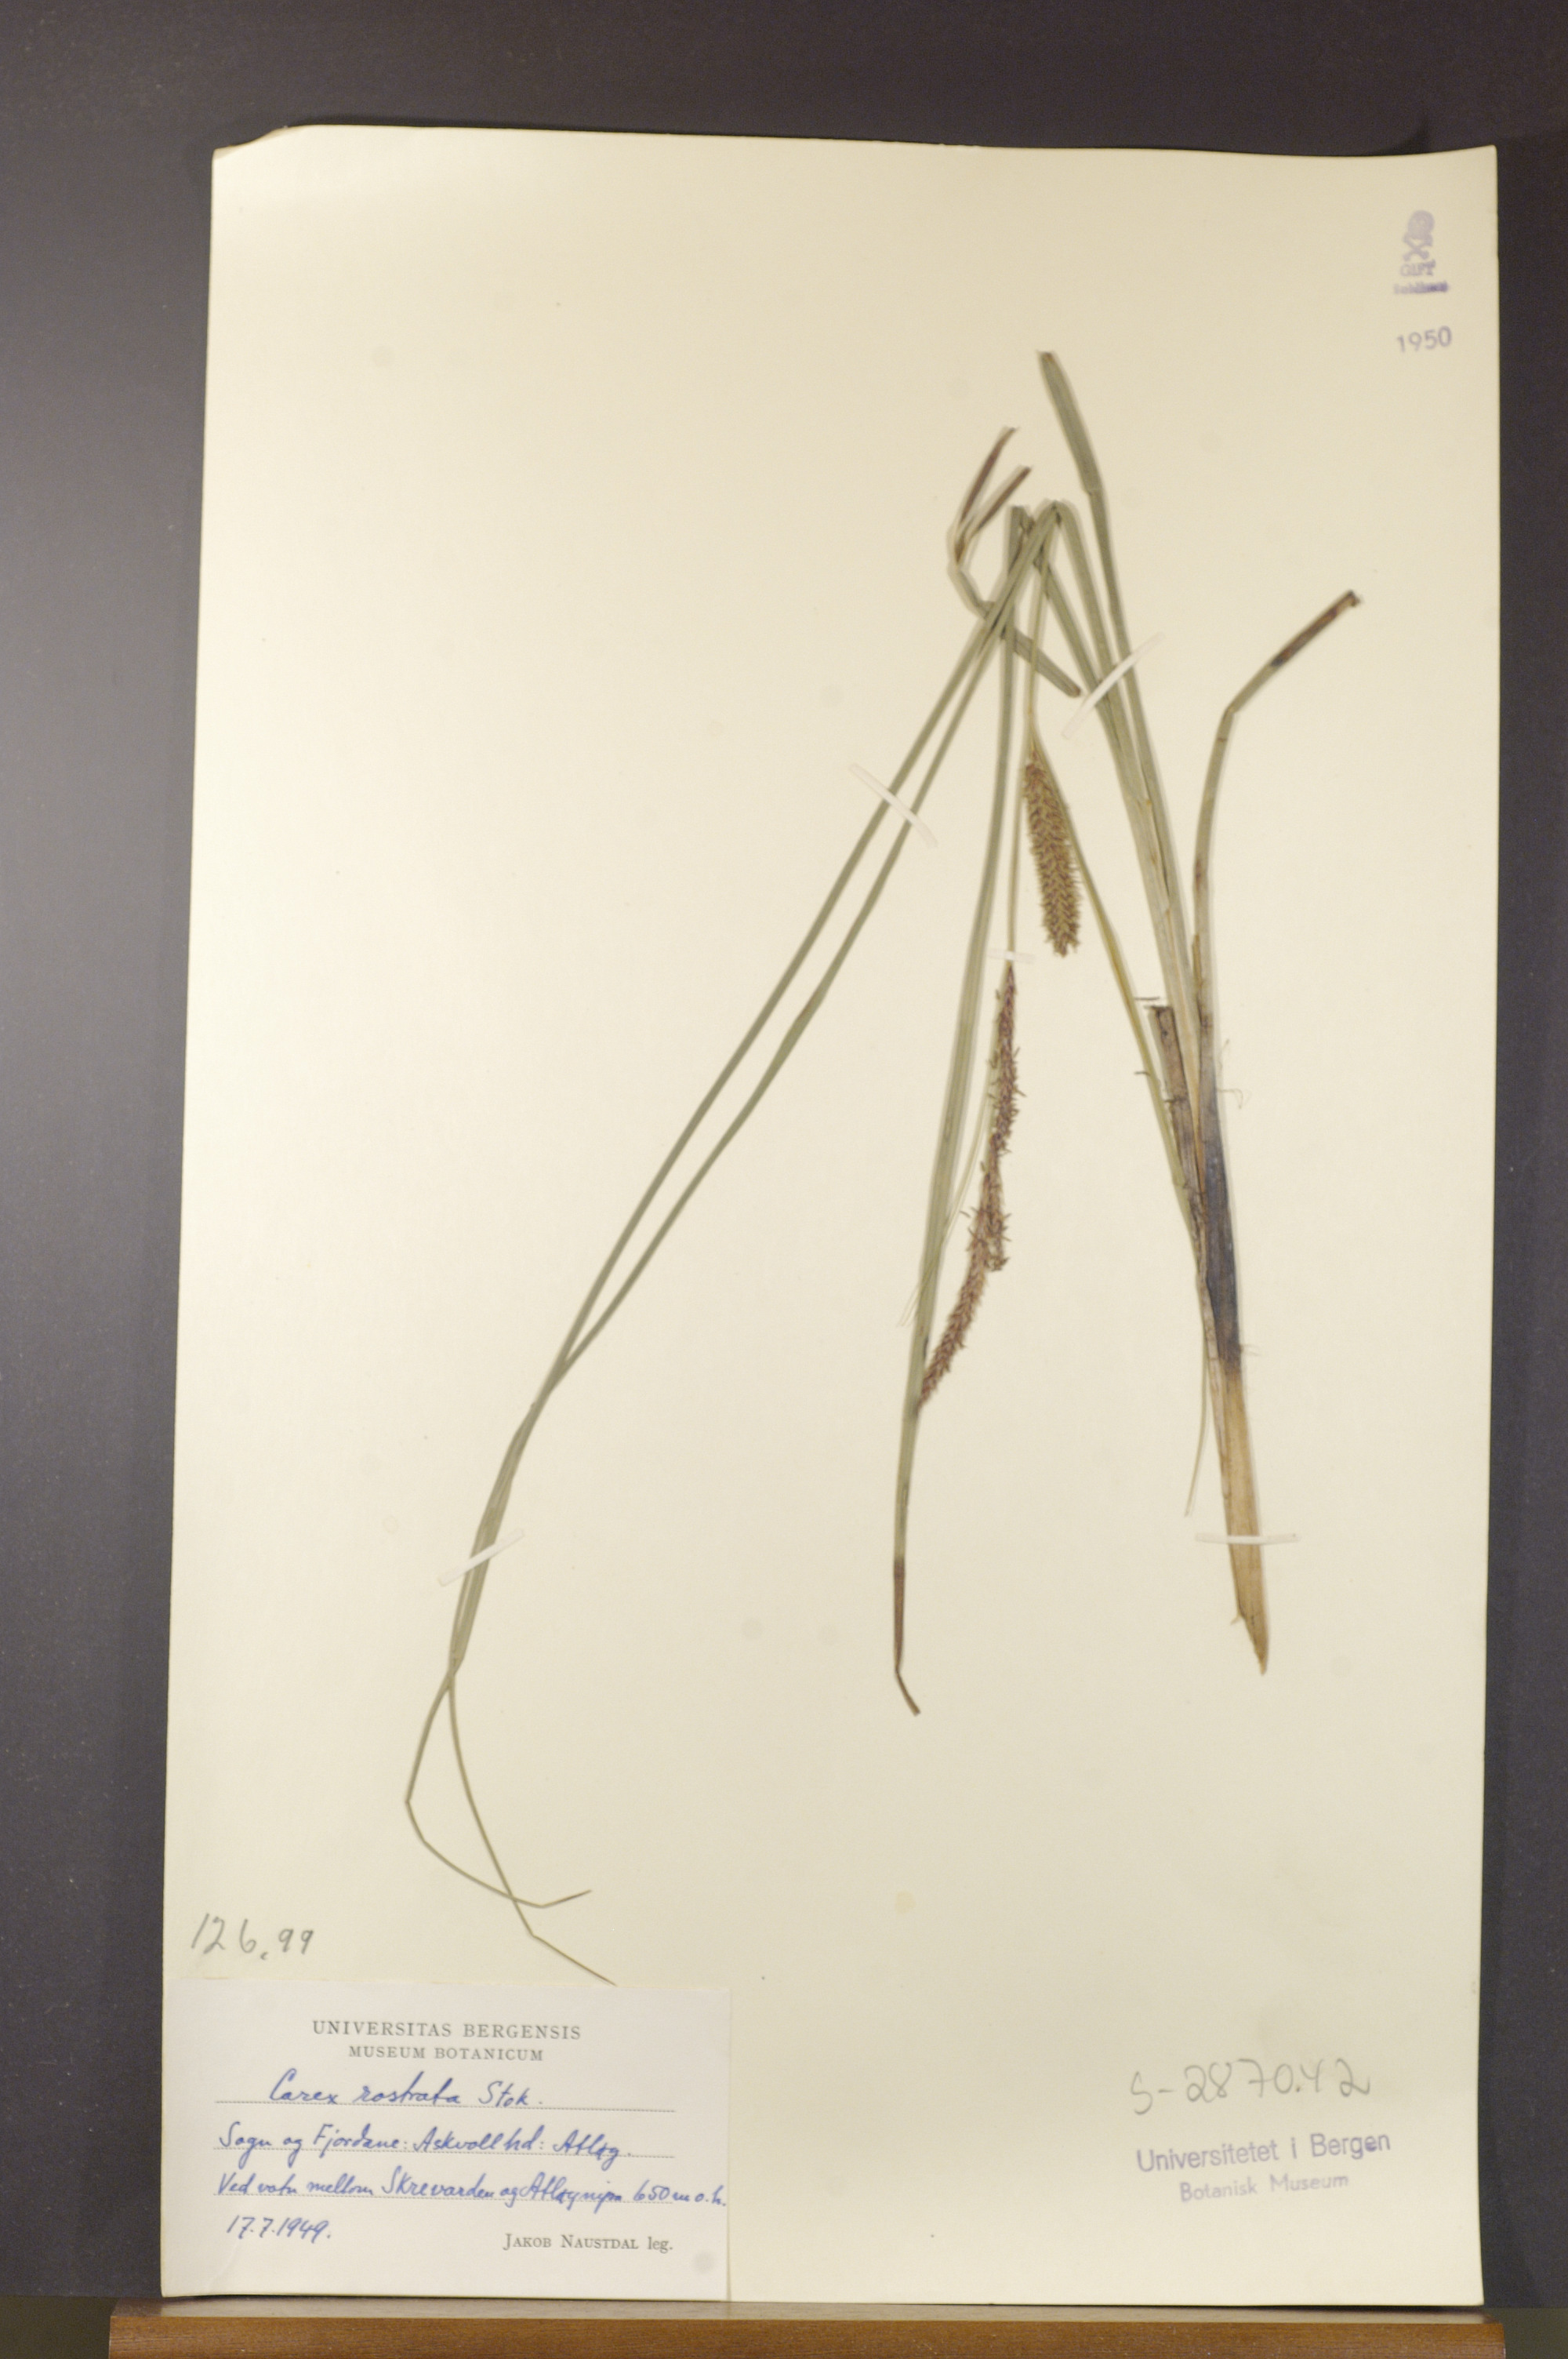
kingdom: Plantae
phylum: Tracheophyta
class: Liliopsida
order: Poales
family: Cyperaceae
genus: Carex
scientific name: Carex rostrata
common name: Bottle sedge
